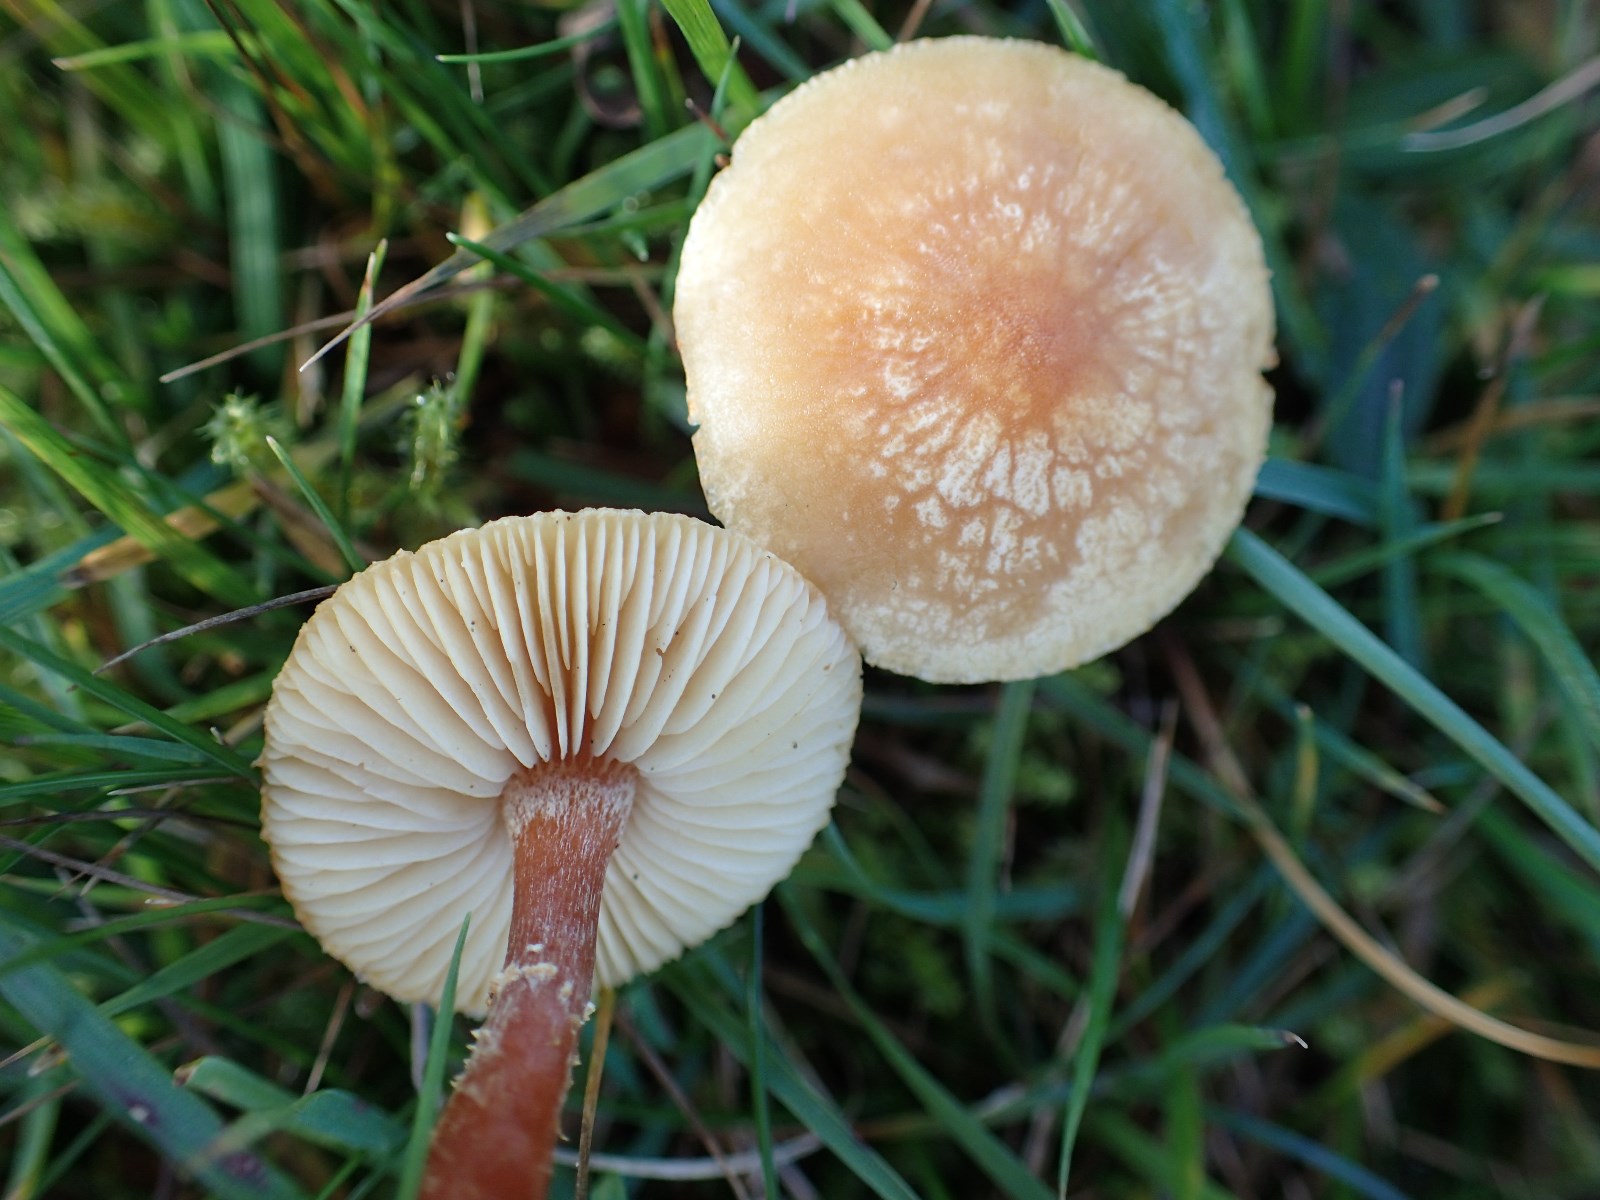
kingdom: Fungi
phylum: Basidiomycota
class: Agaricomycetes
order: Agaricales
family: Tricholomataceae
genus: Cystoderma
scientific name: Cystoderma amianthinum
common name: okkergul grynhat
